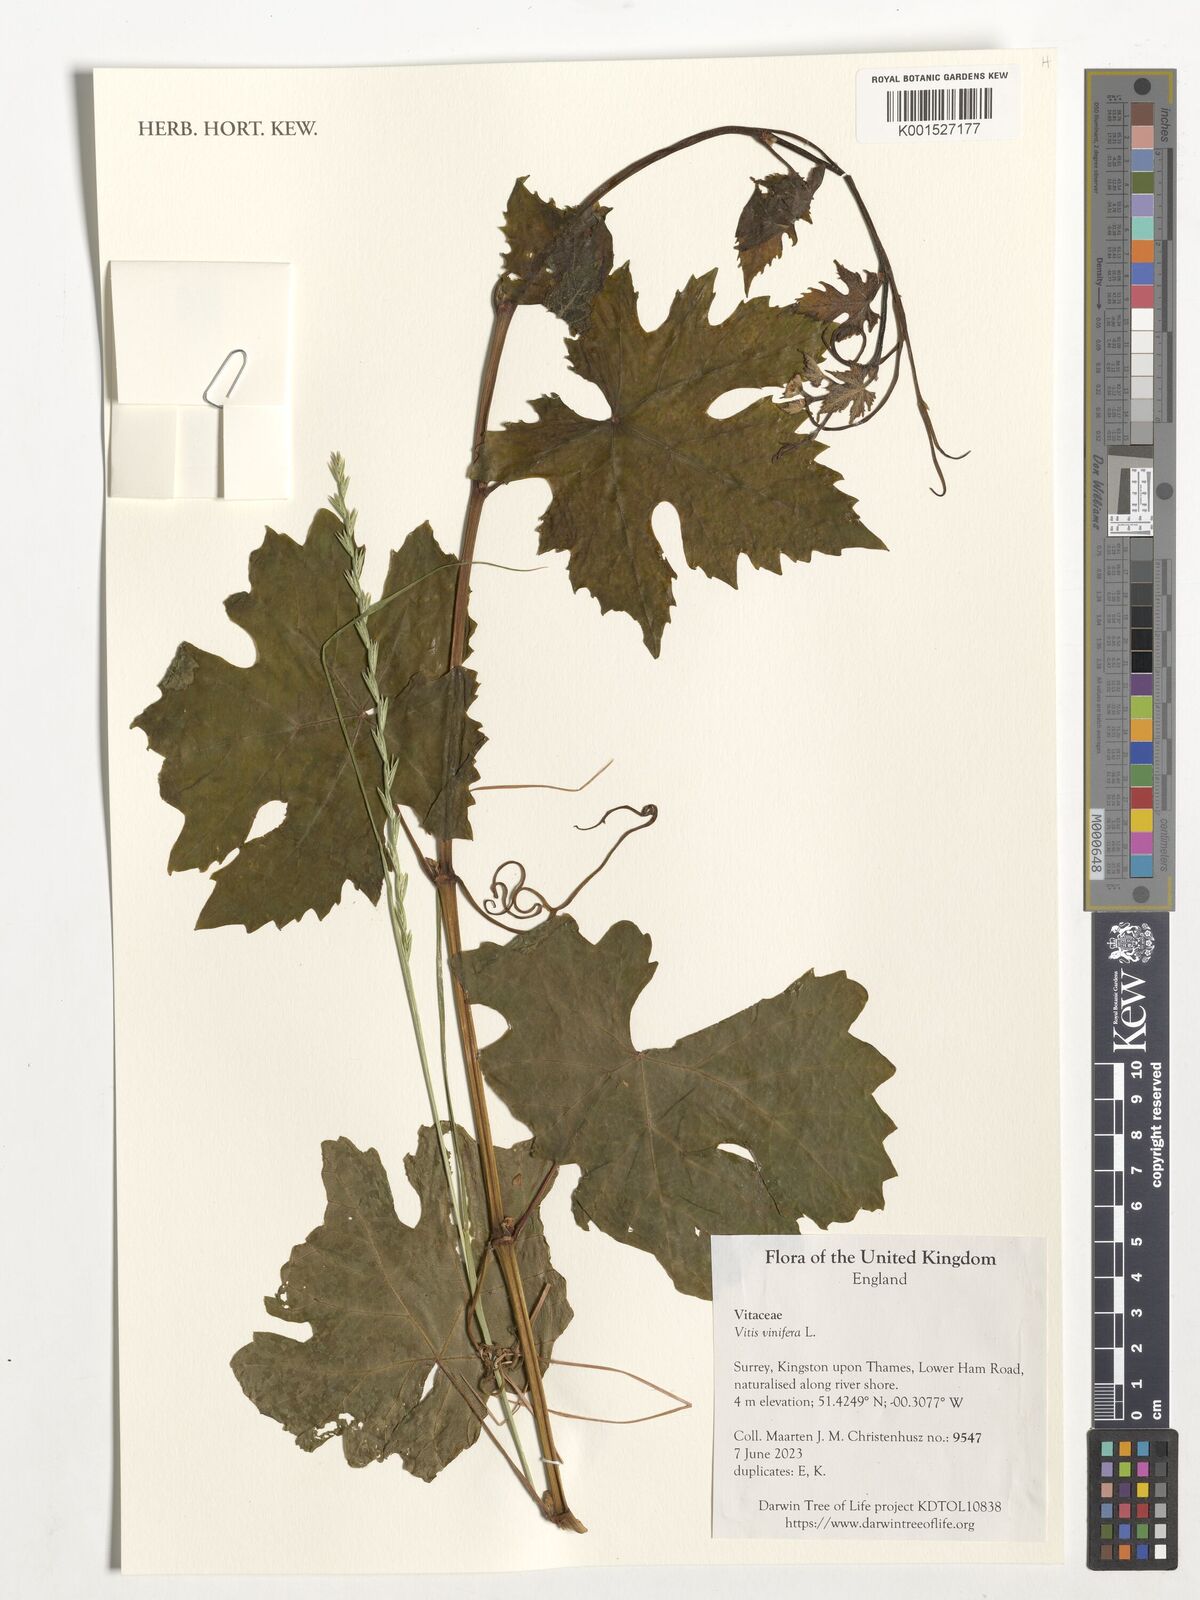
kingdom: Plantae
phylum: Tracheophyta
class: Magnoliopsida
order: Vitales
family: Vitaceae
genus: Vitis
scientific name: Vitis vinifera
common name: Grape-vine
